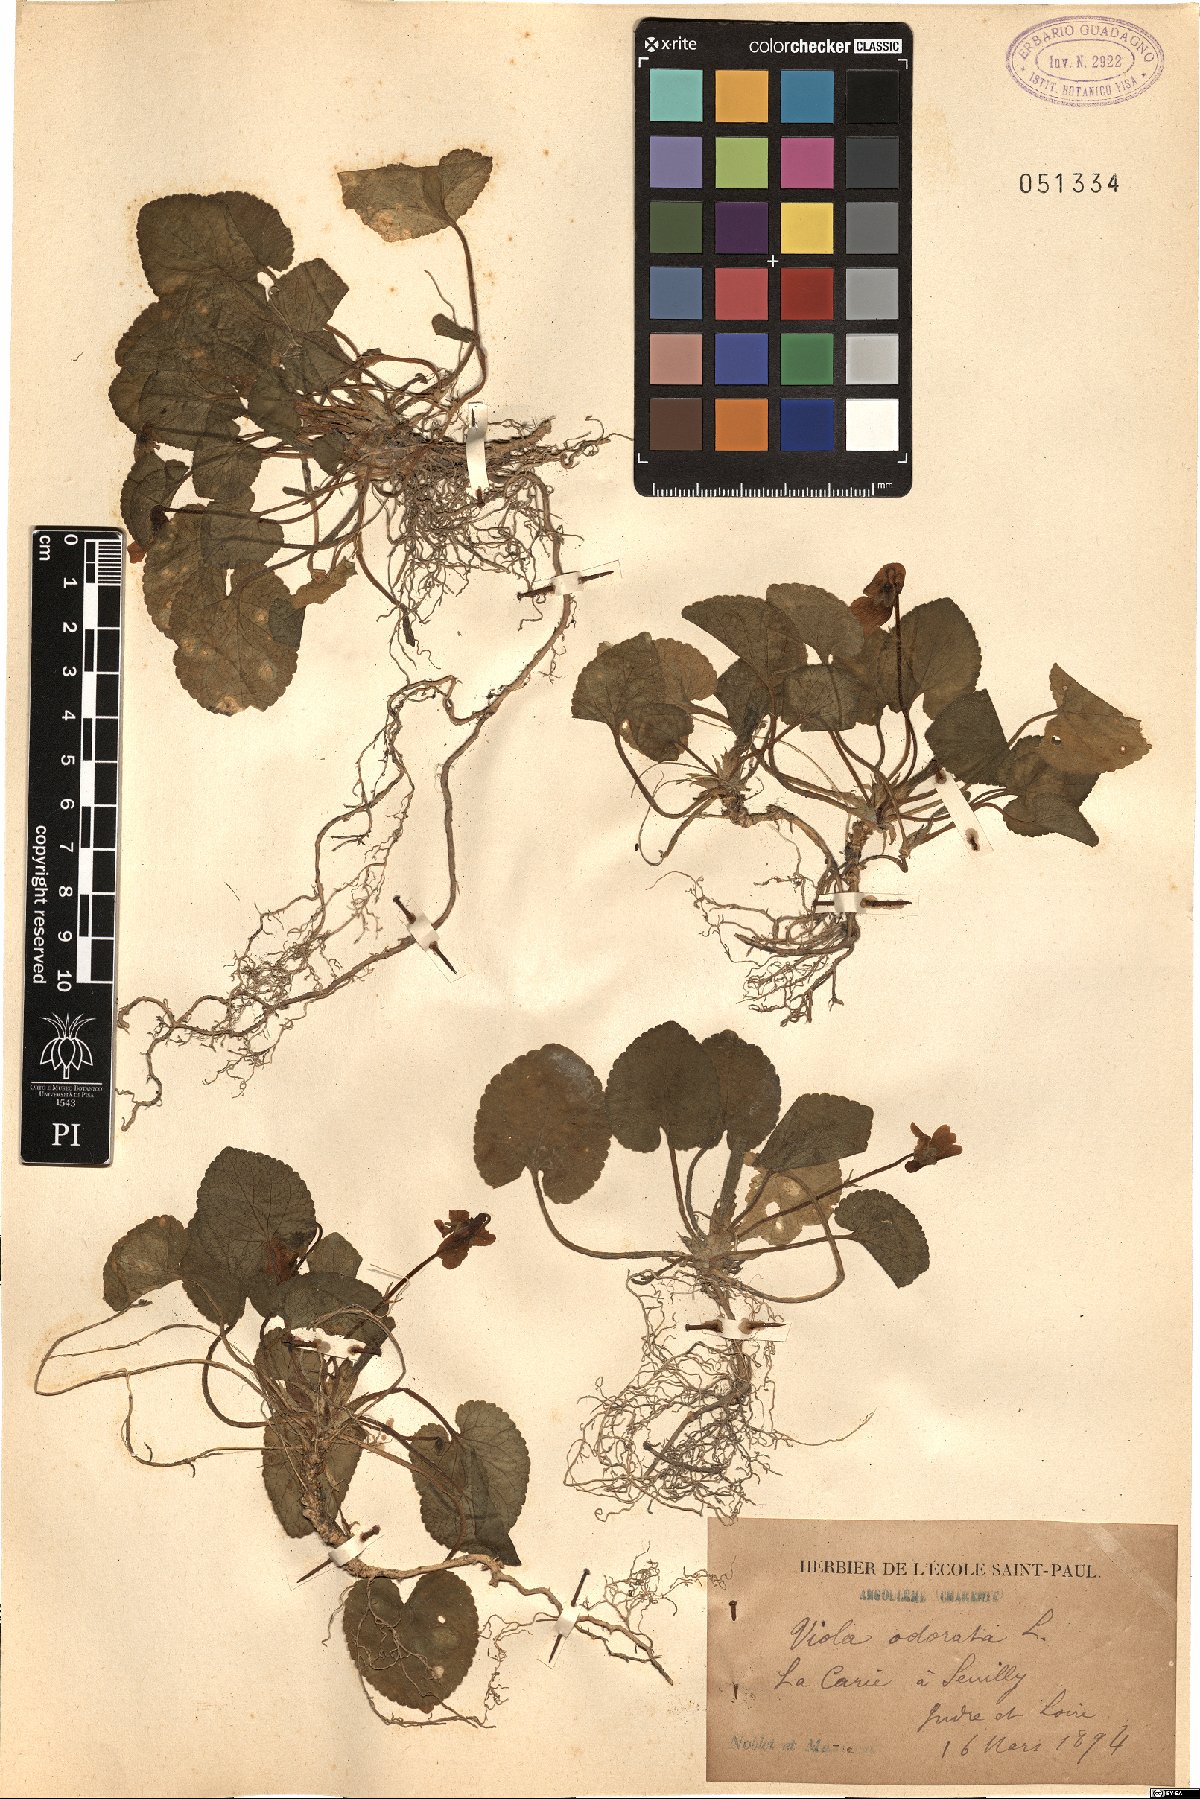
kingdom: Plantae
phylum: Tracheophyta
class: Magnoliopsida
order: Malpighiales
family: Violaceae
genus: Viola
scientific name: Viola odorata
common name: Sweet violet
